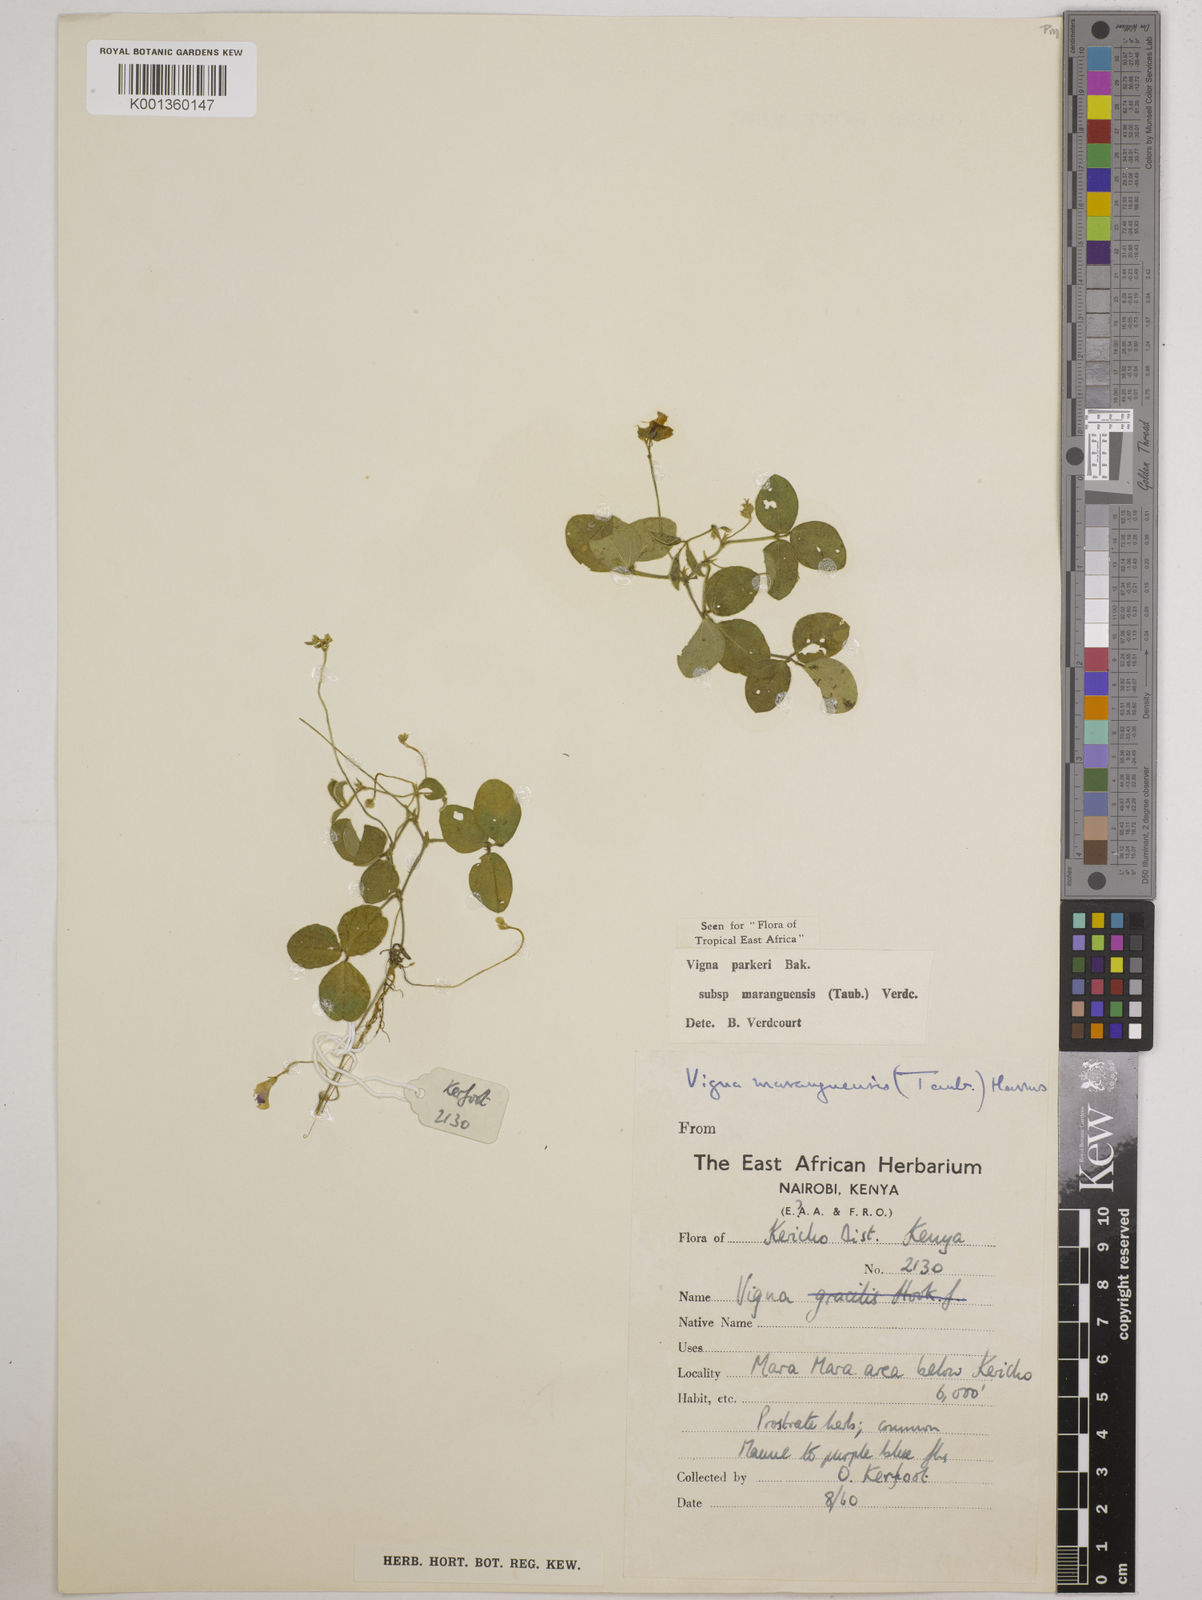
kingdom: Plantae
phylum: Tracheophyta
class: Magnoliopsida
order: Fabales
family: Fabaceae
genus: Vigna
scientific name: Vigna
